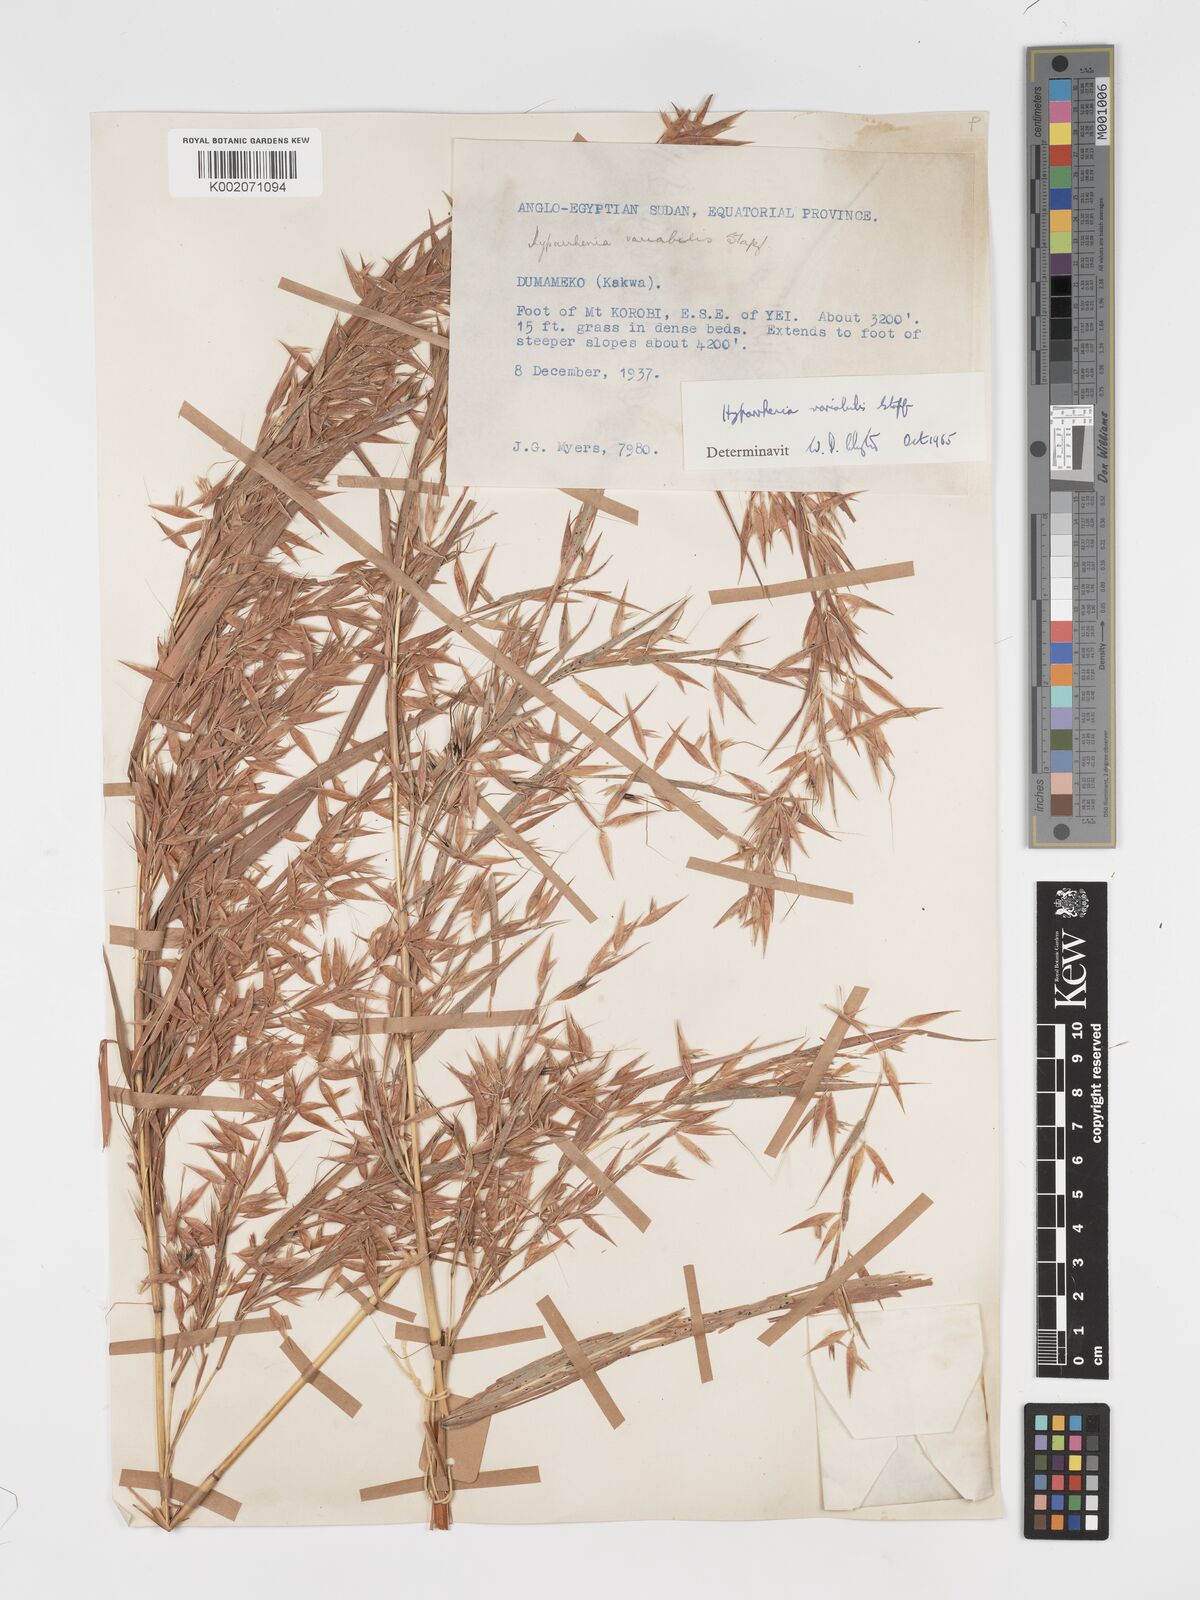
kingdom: Plantae
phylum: Tracheophyta
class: Liliopsida
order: Poales
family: Poaceae
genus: Hyparrhenia
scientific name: Hyparrhenia variabilis
